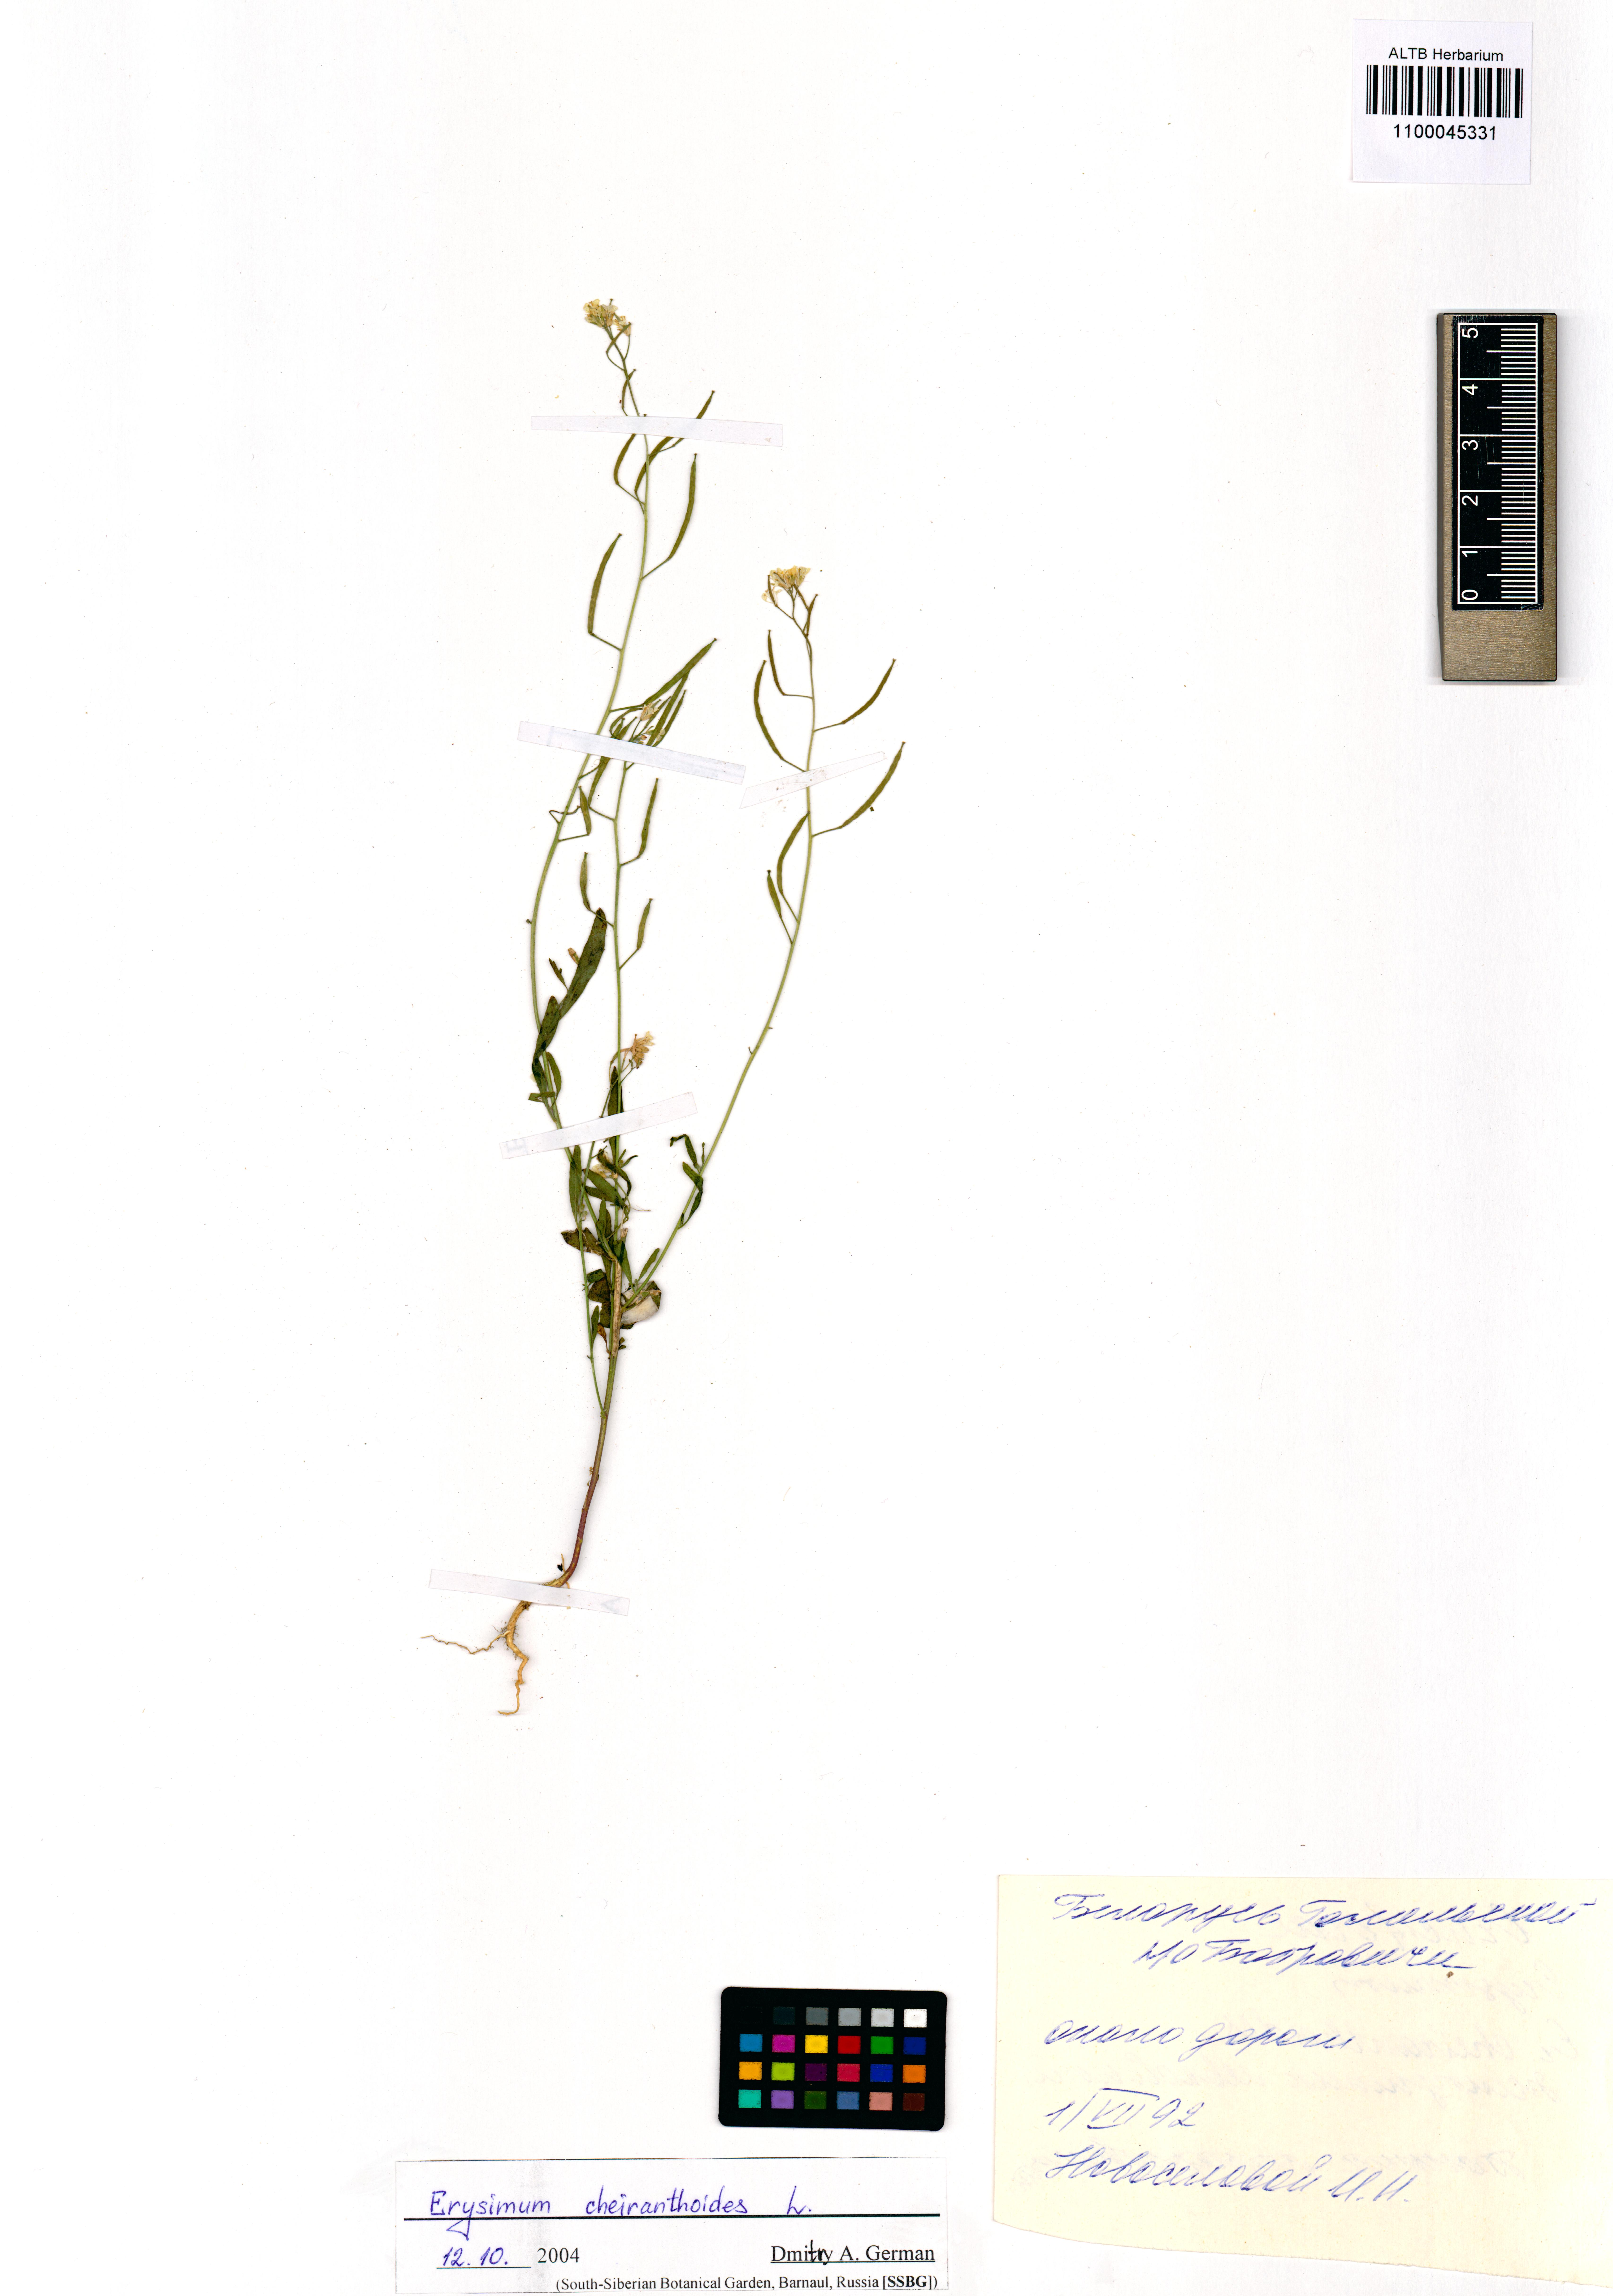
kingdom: Plantae
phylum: Tracheophyta
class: Magnoliopsida
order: Brassicales
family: Brassicaceae
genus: Erysimum
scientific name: Erysimum cheiranthoides
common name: Treacle mustard
